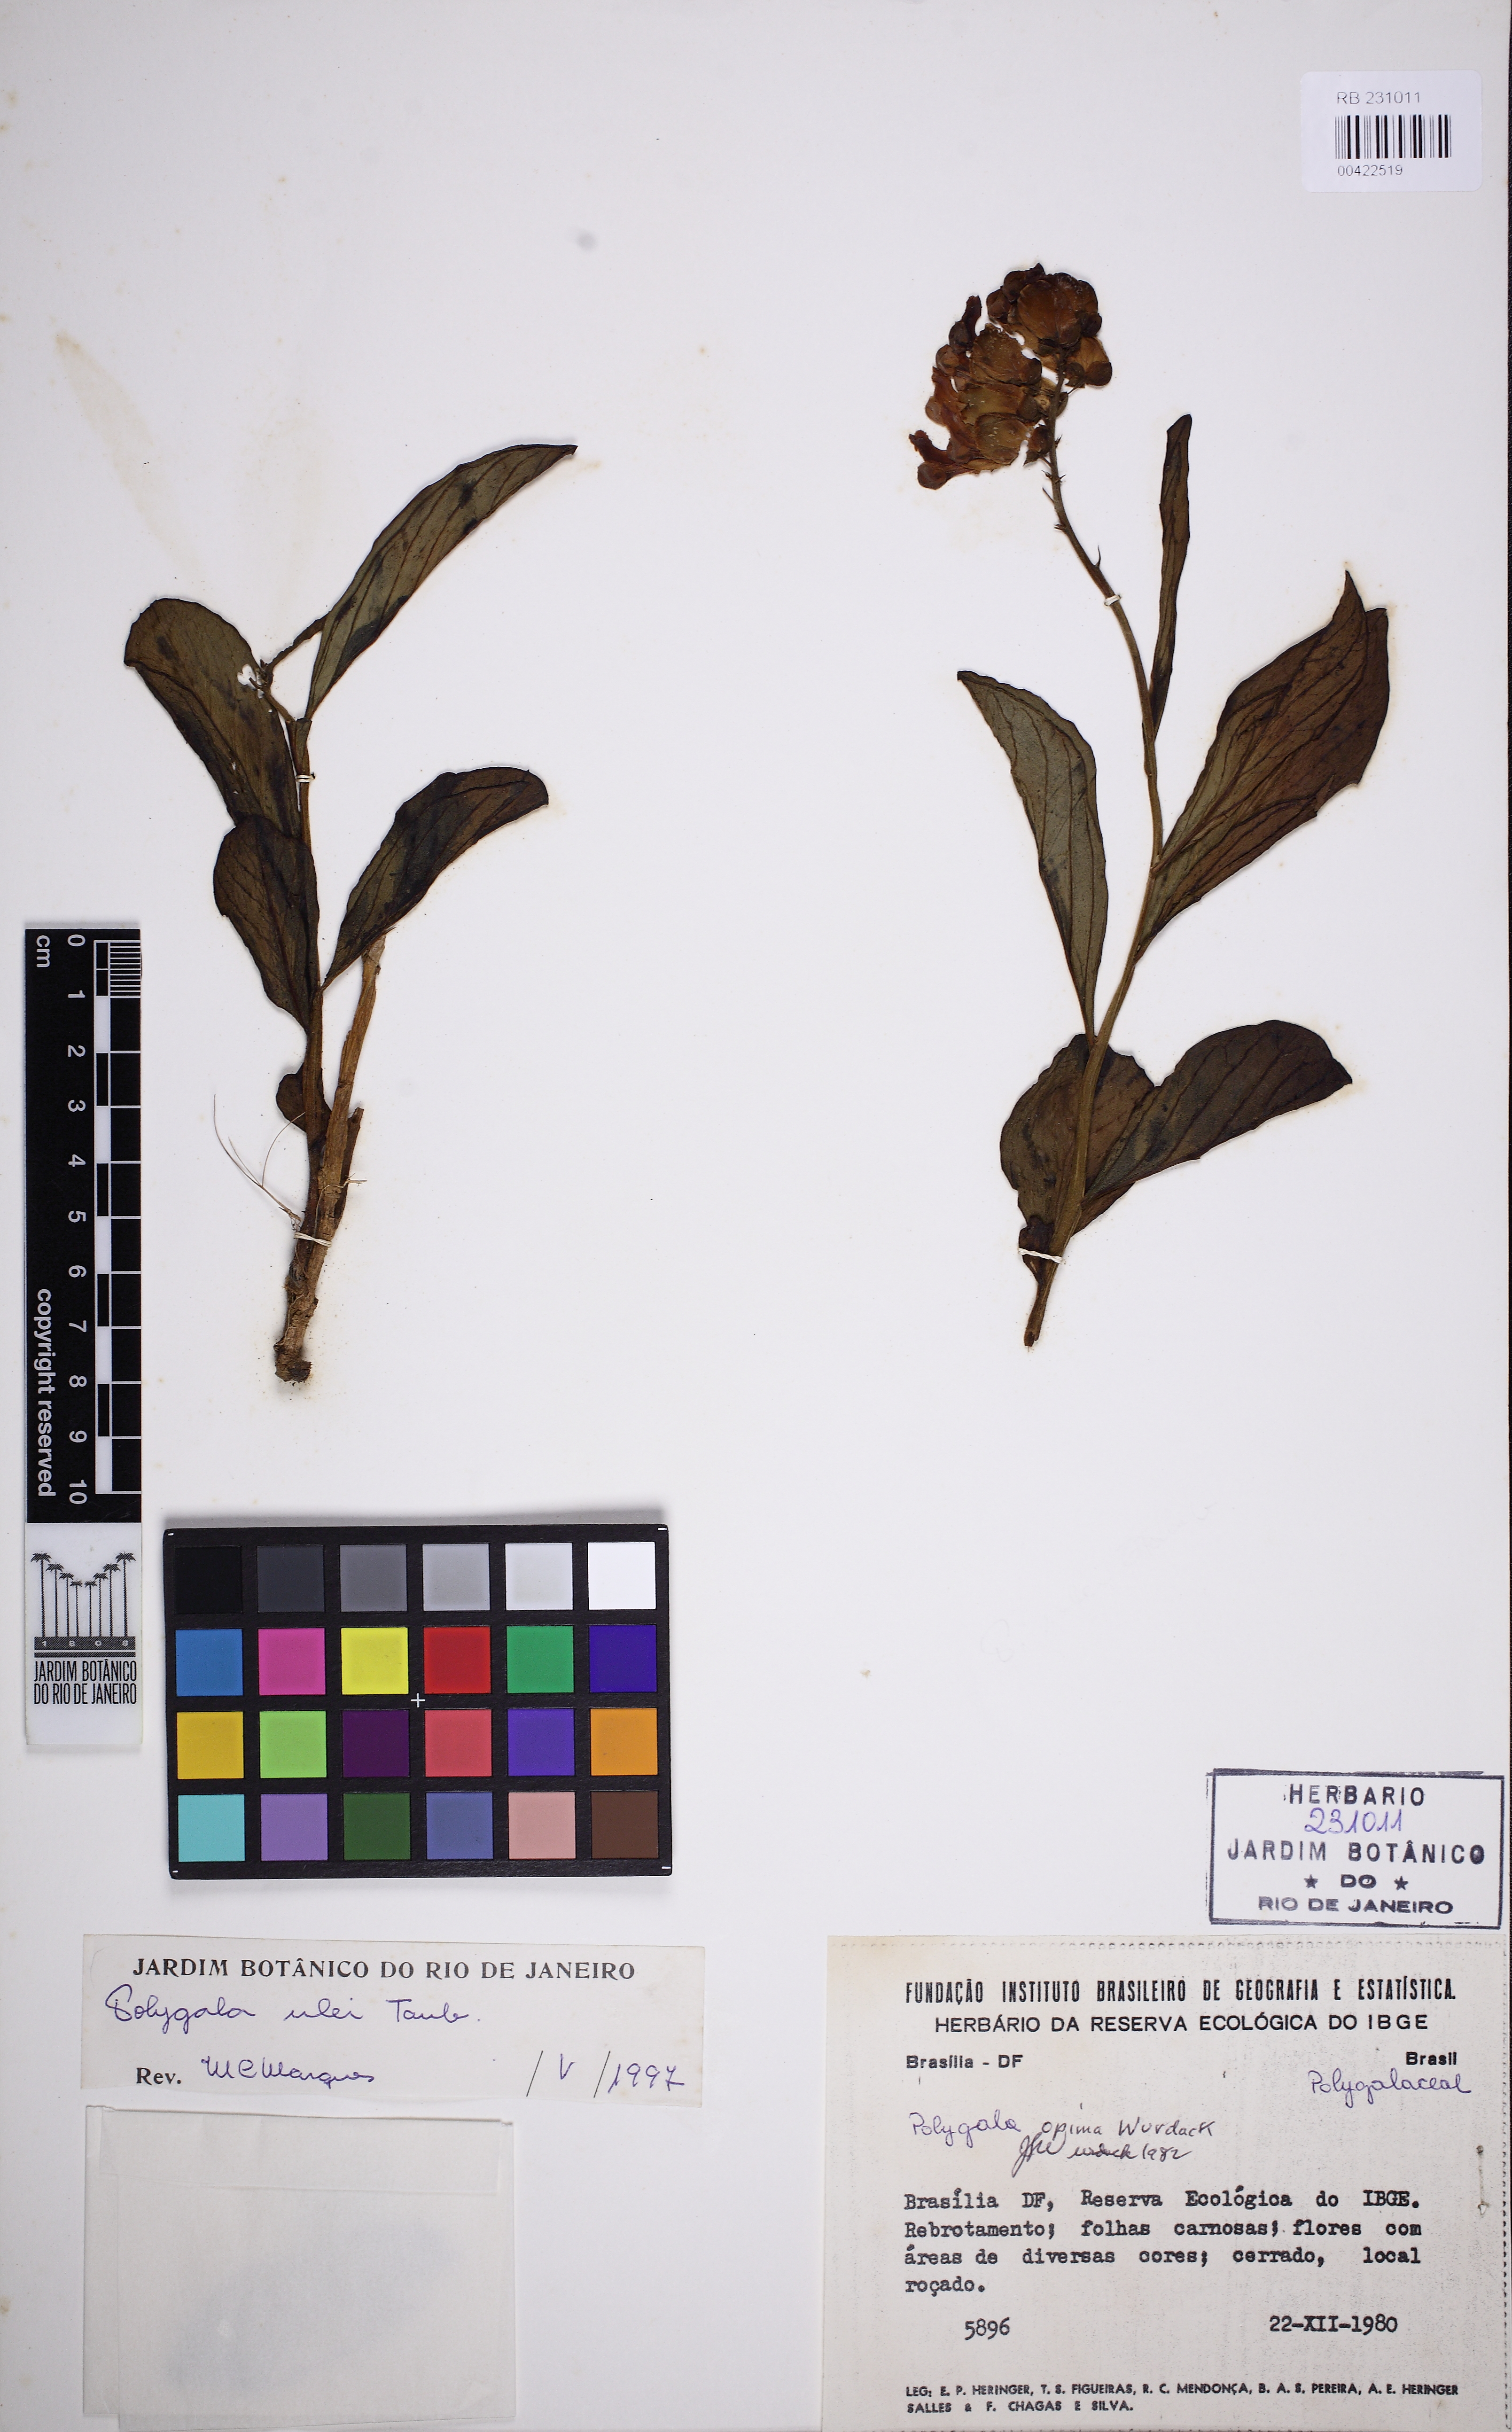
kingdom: Plantae
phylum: Tracheophyta
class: Magnoliopsida
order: Fabales
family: Polygalaceae
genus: Caamembeca
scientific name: Caamembeca ulei
